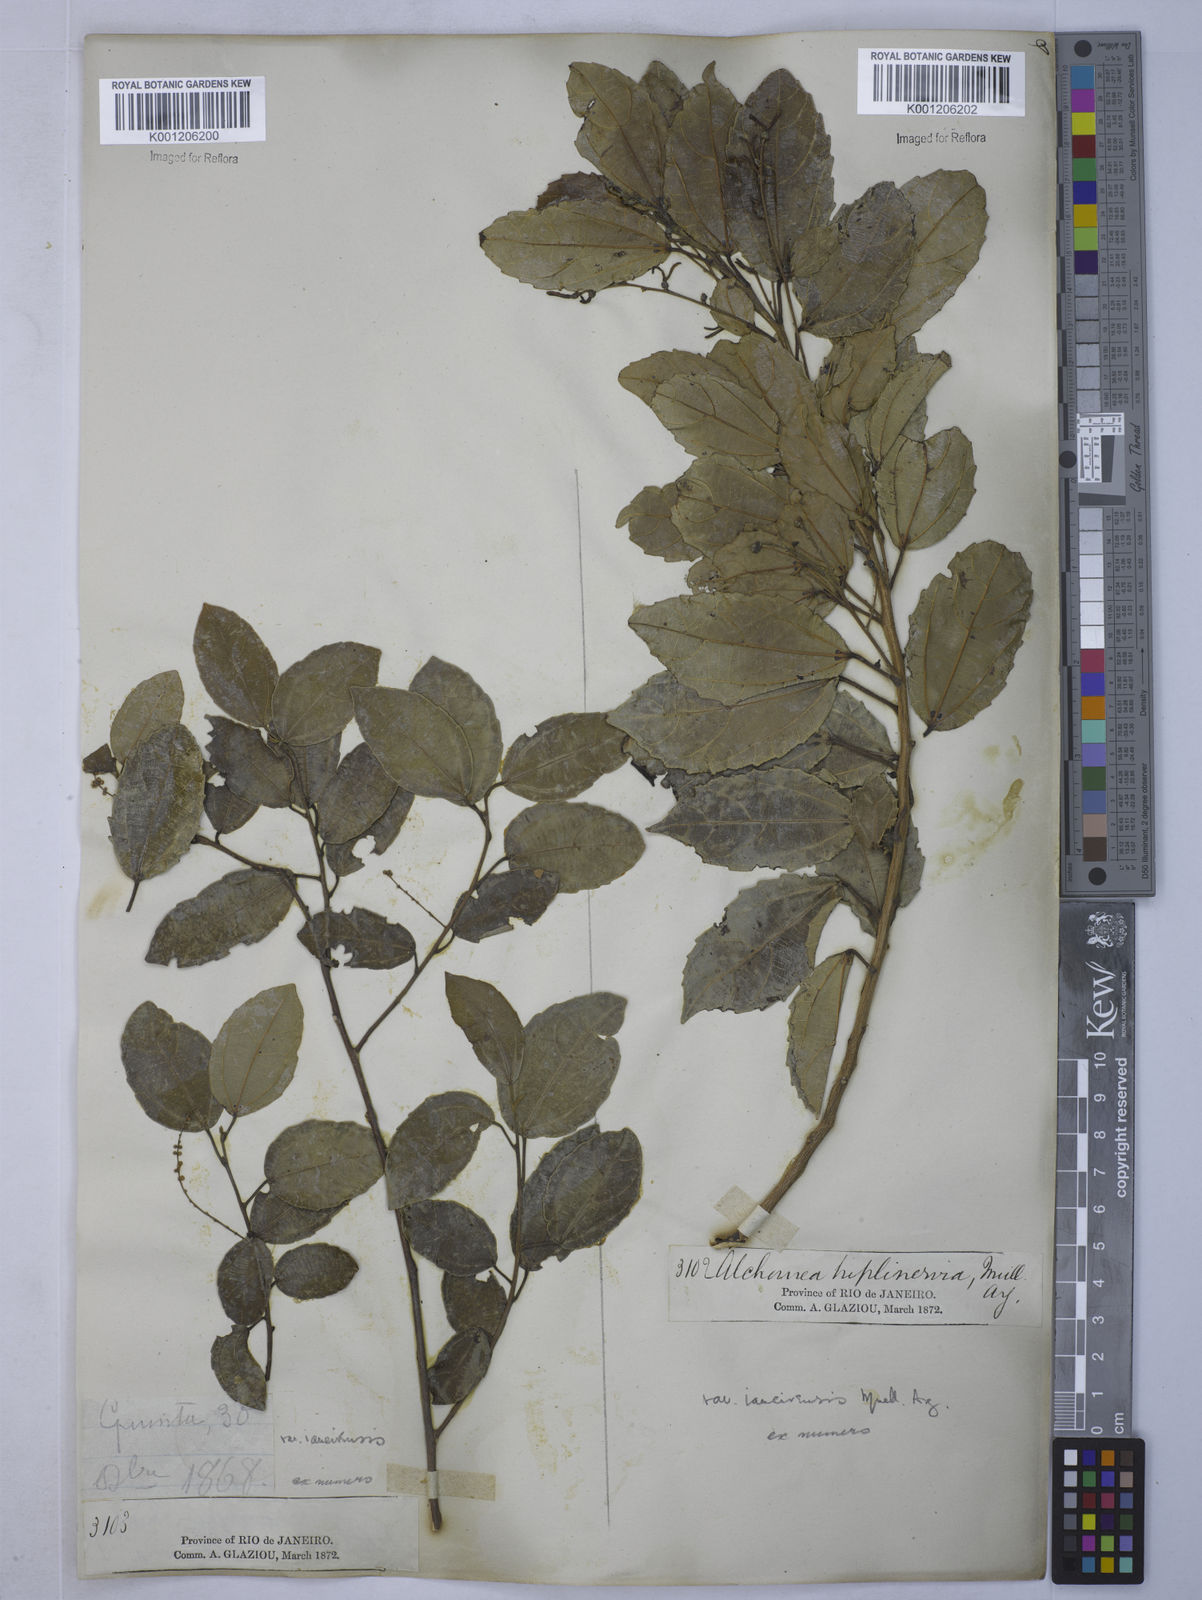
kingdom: Plantae
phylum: Tracheophyta
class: Magnoliopsida
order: Malpighiales
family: Euphorbiaceae
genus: Alchornea
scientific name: Alchornea
